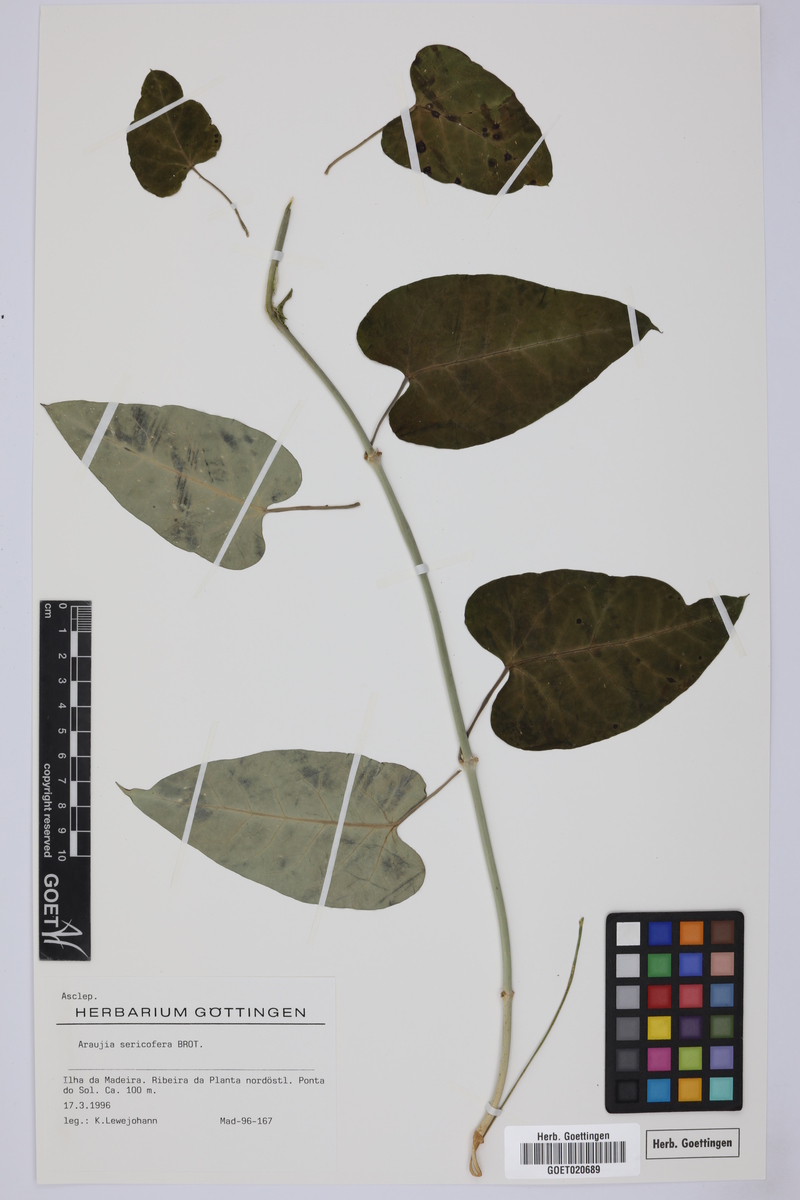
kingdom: Plantae
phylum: Tracheophyta
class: Magnoliopsida
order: Gentianales
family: Apocynaceae
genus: Araujia
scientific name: Araujia sericifera
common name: White bladderflower
